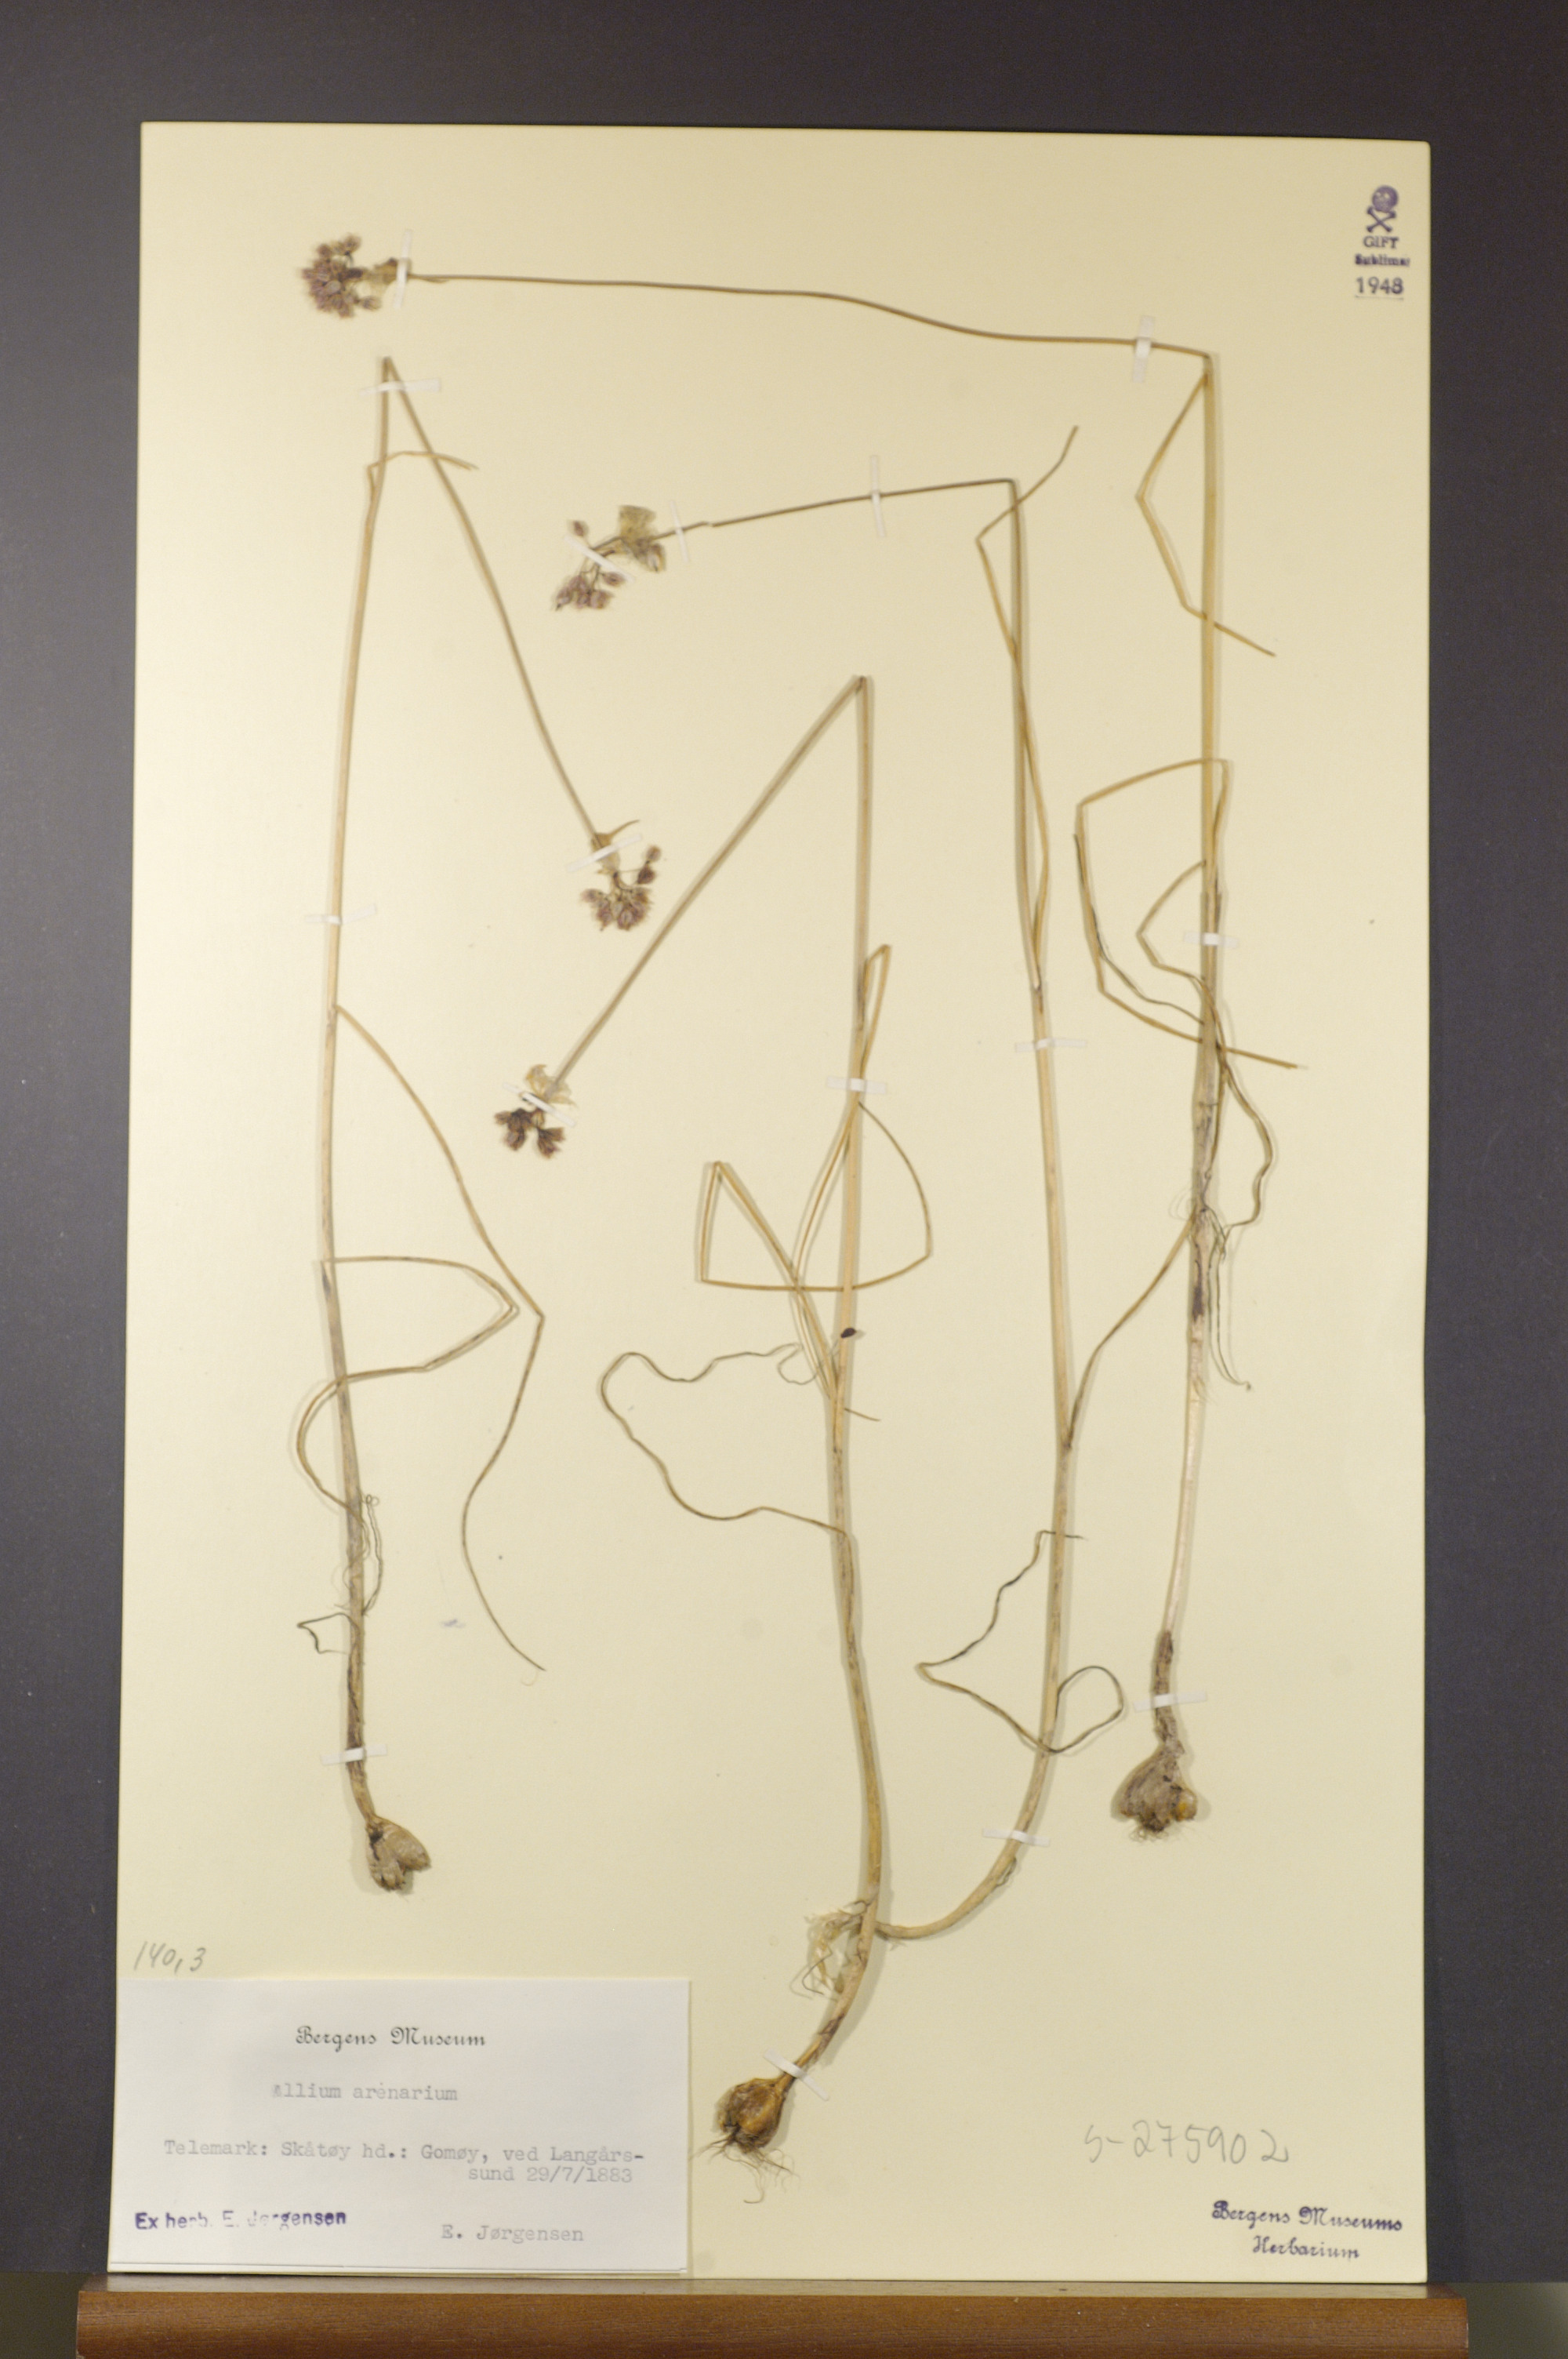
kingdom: Plantae
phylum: Tracheophyta
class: Liliopsida
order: Asparagales
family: Amaryllidaceae
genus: Allium
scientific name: Allium vineale
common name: Crow garlic
